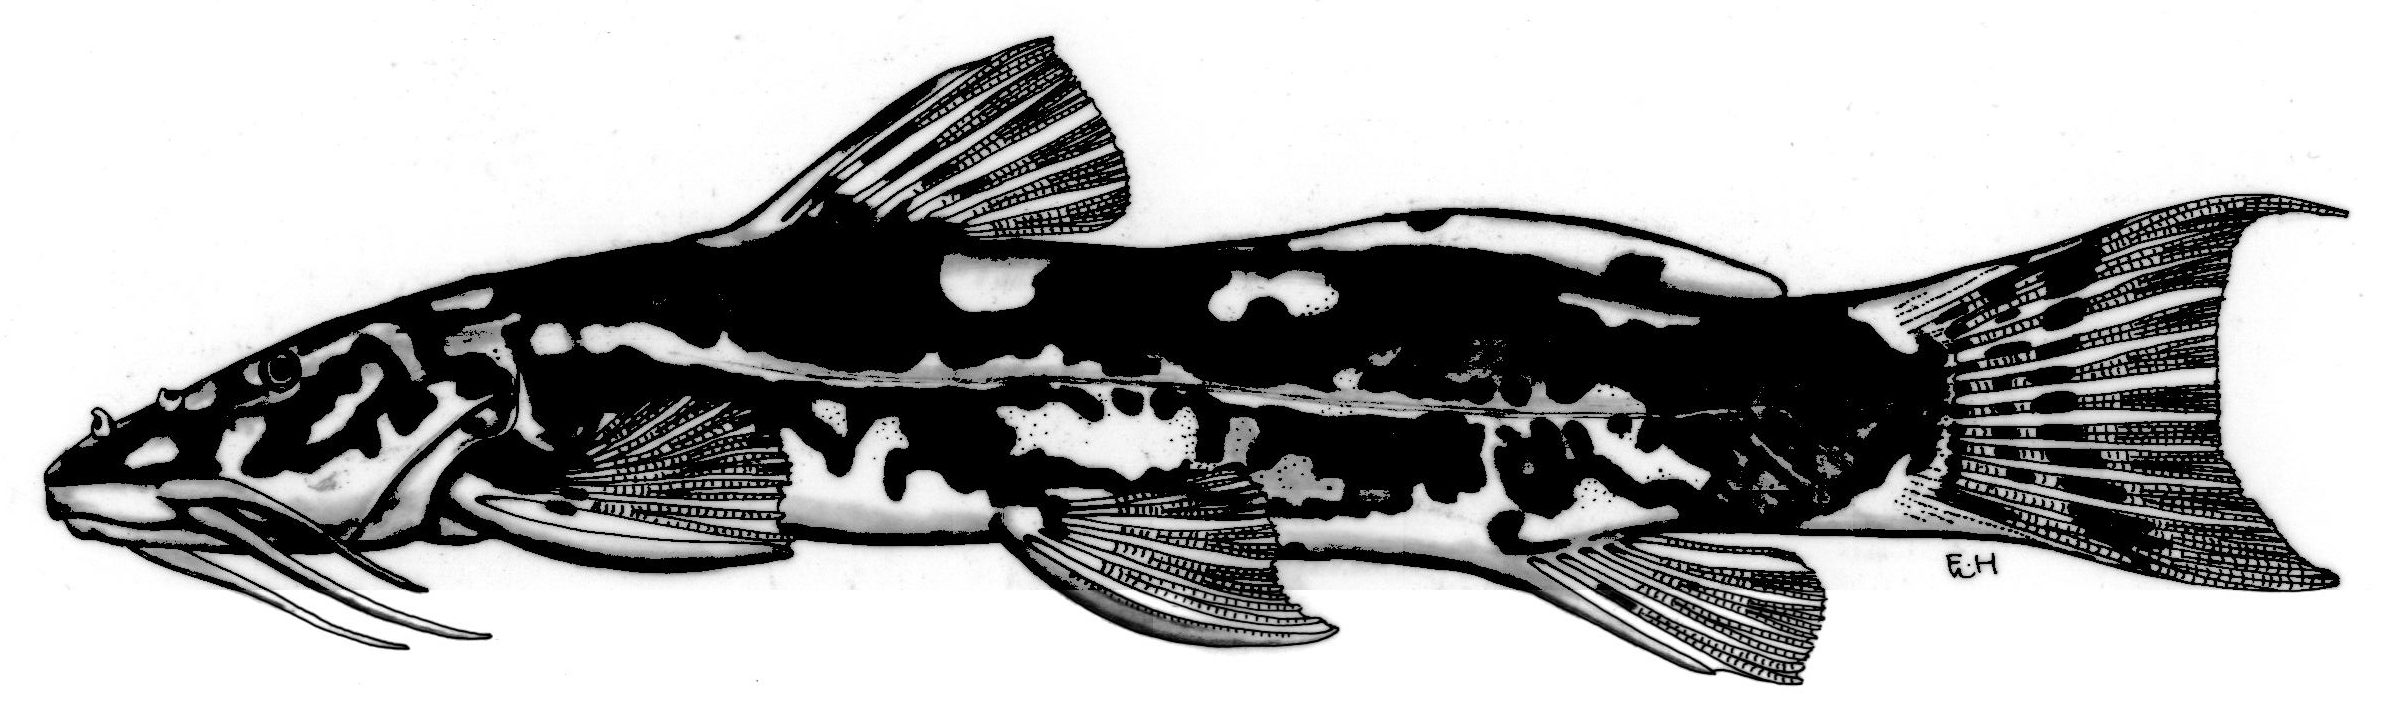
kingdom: Animalia
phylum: Chordata
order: Siluriformes
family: Amphiliidae
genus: Amphilius
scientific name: Amphilius pulcher
